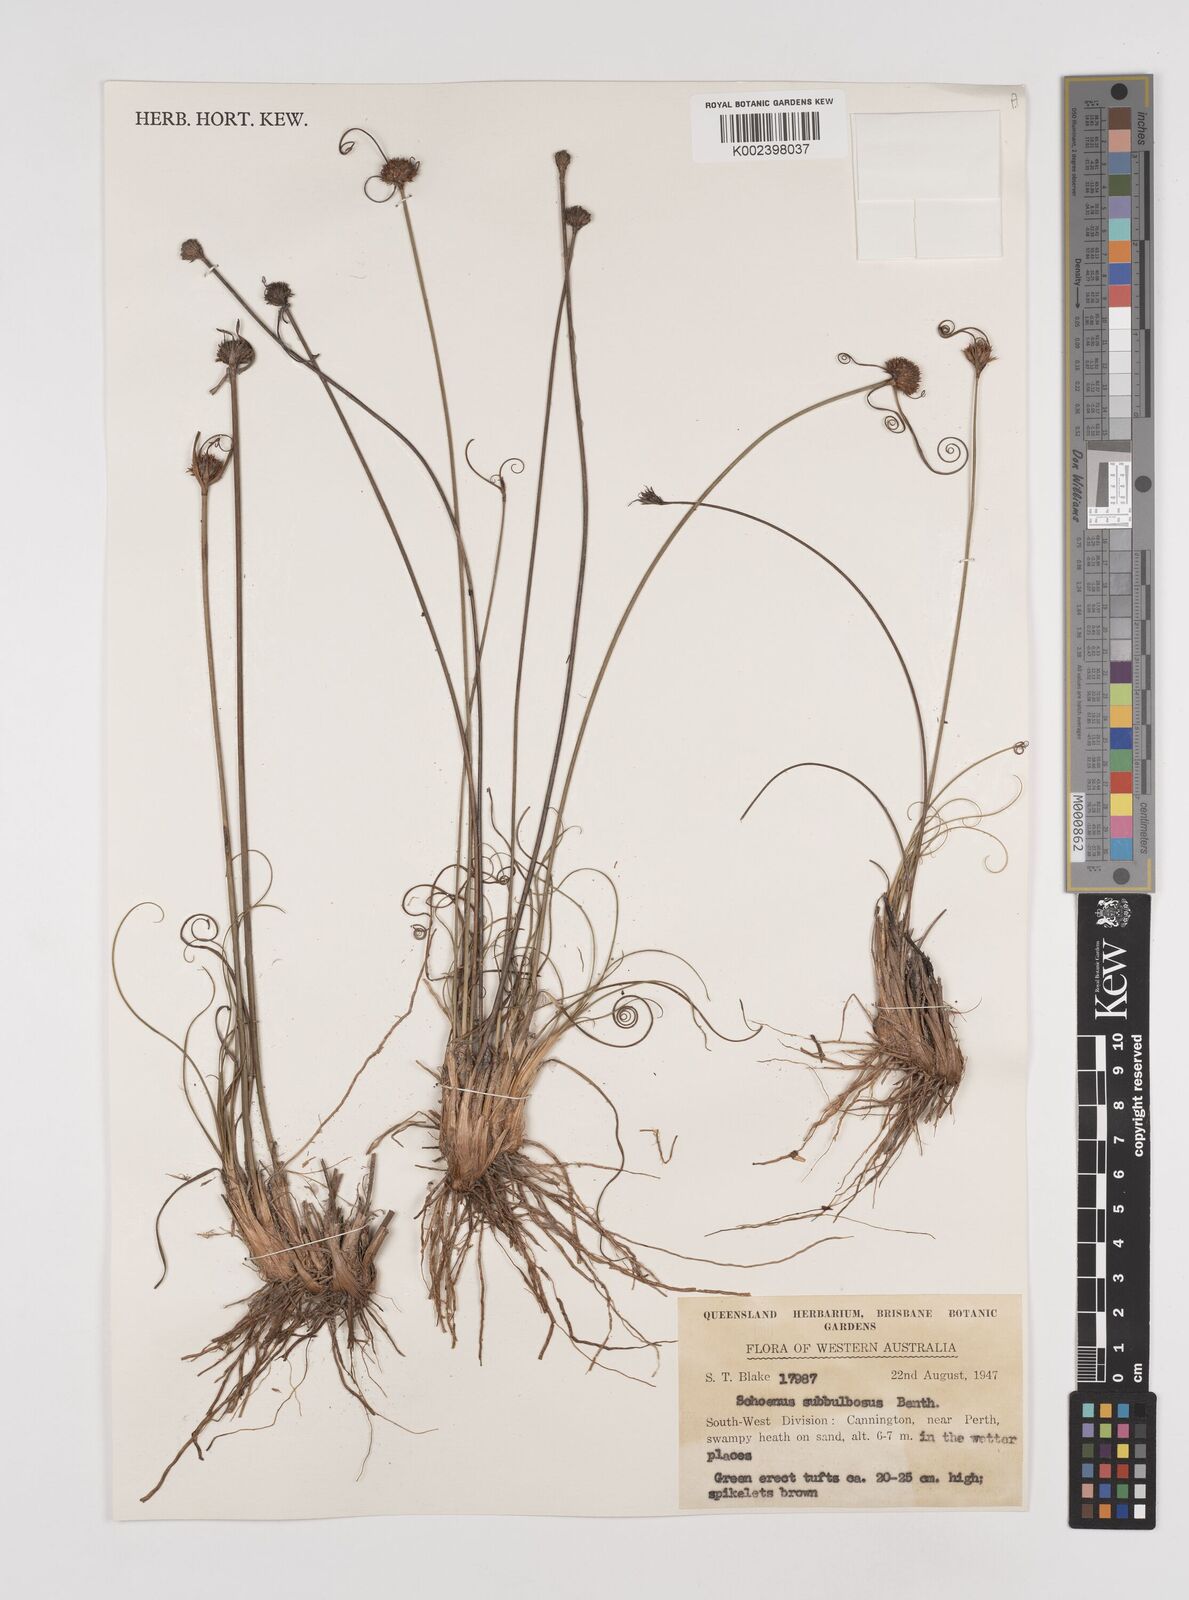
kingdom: Plantae
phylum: Tracheophyta
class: Liliopsida
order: Poales
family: Cyperaceae
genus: Cyperus
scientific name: Cyperus brevifolius
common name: Globe kyllinga
